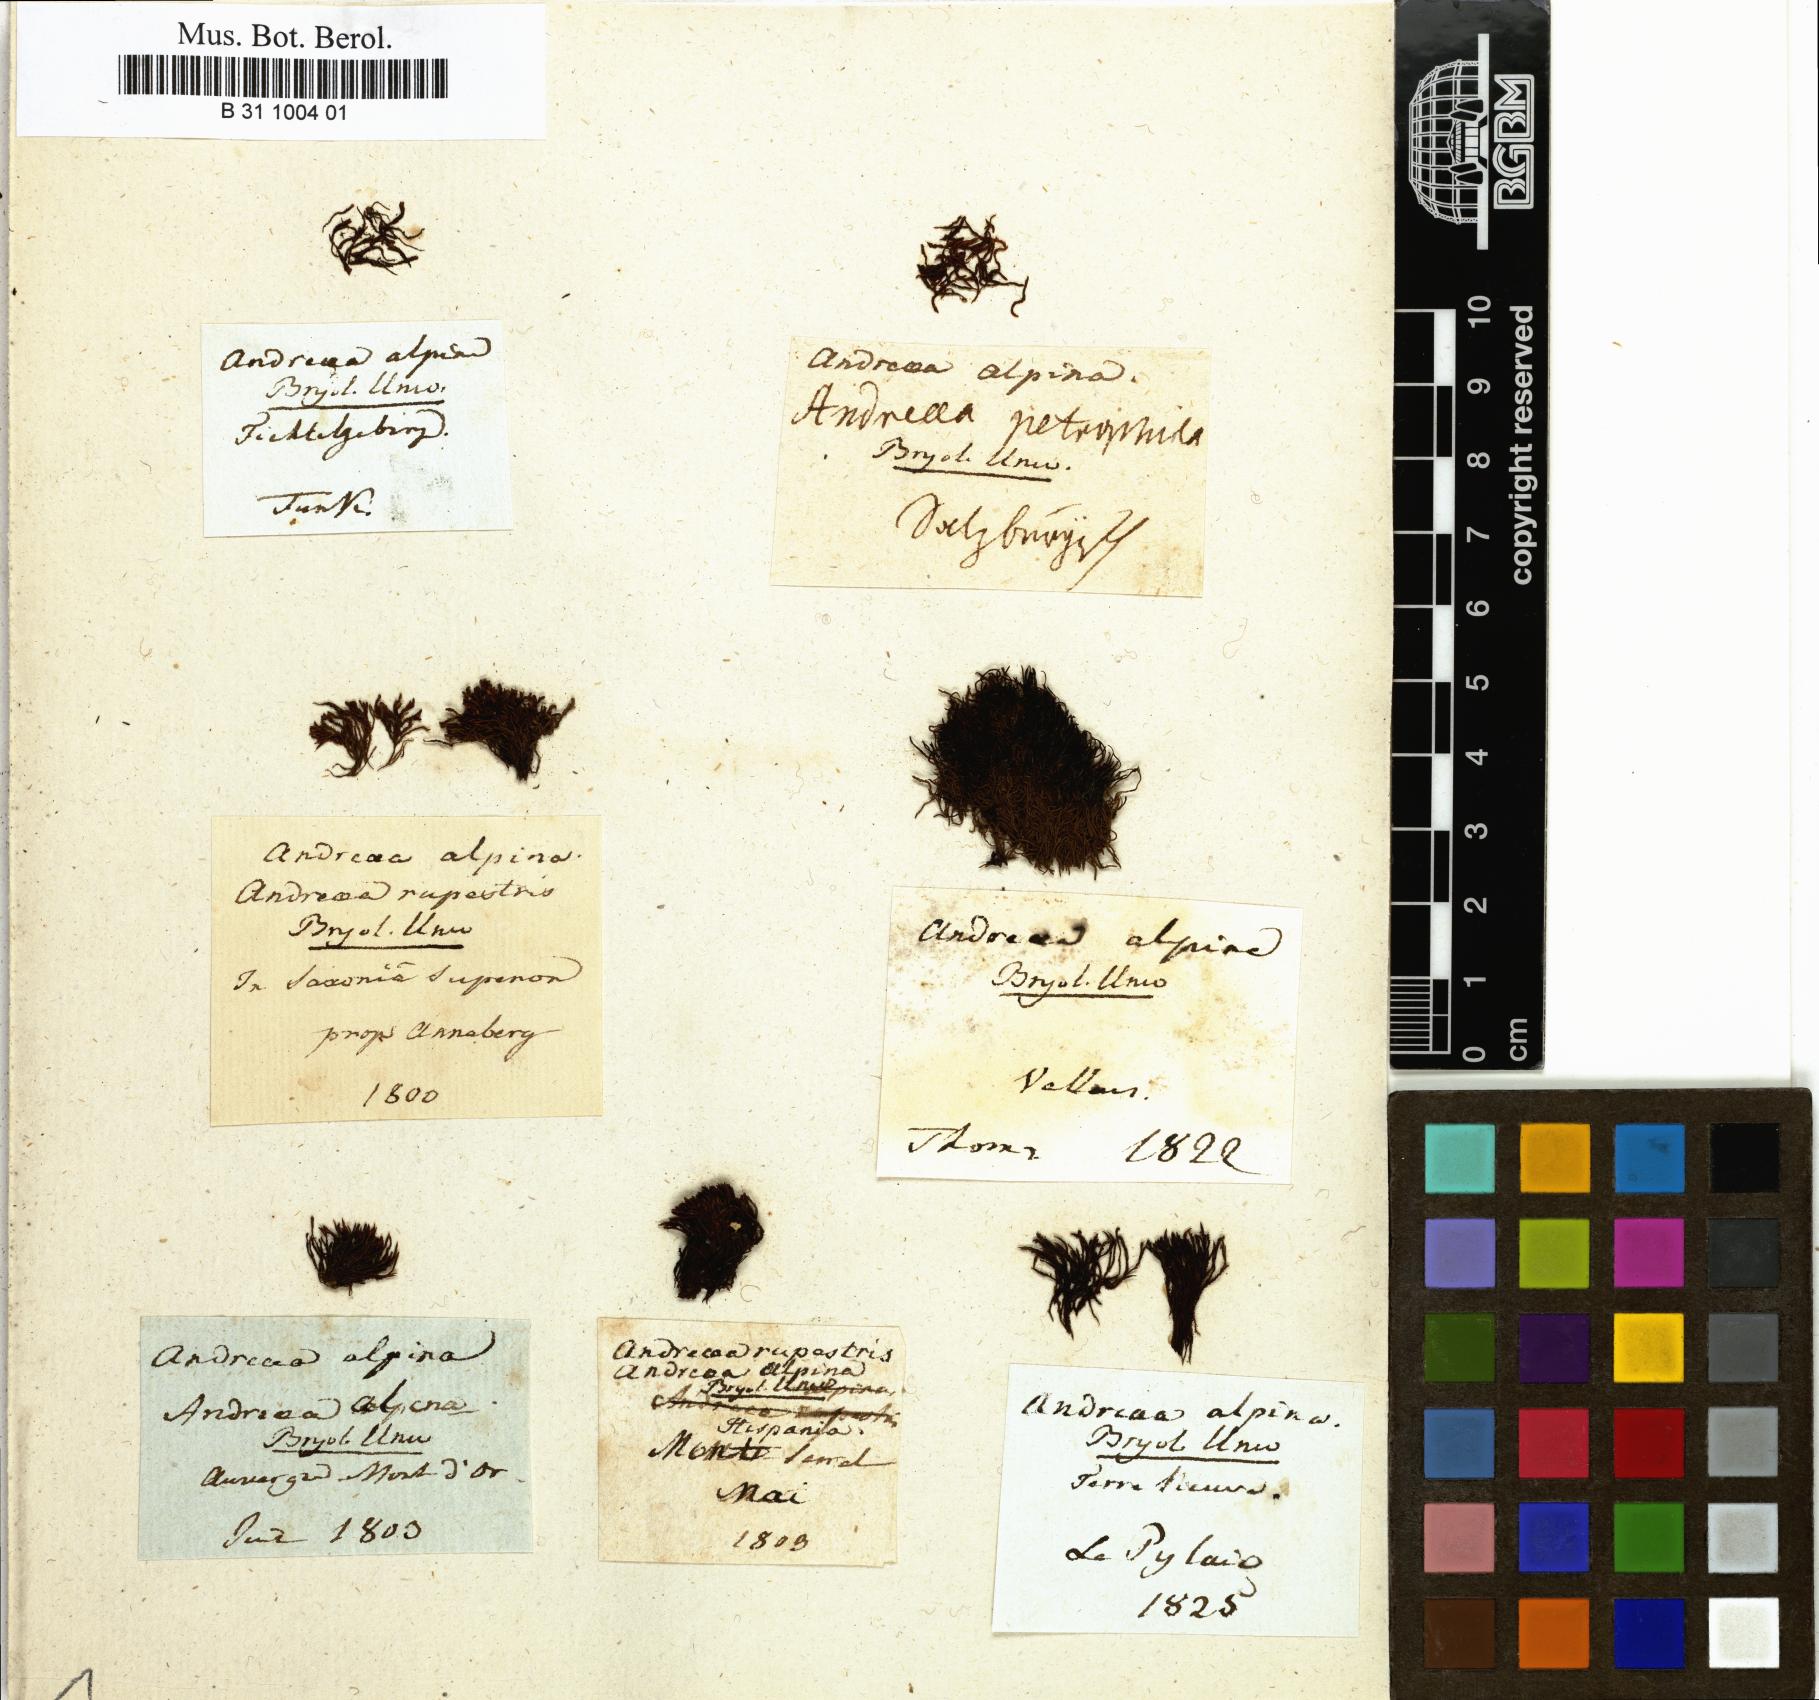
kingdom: Plantae
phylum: Bryophyta
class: Andreaeopsida
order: Andreaeales
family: Andreaeaceae
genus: Andreaea
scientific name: Andreaea alpina
